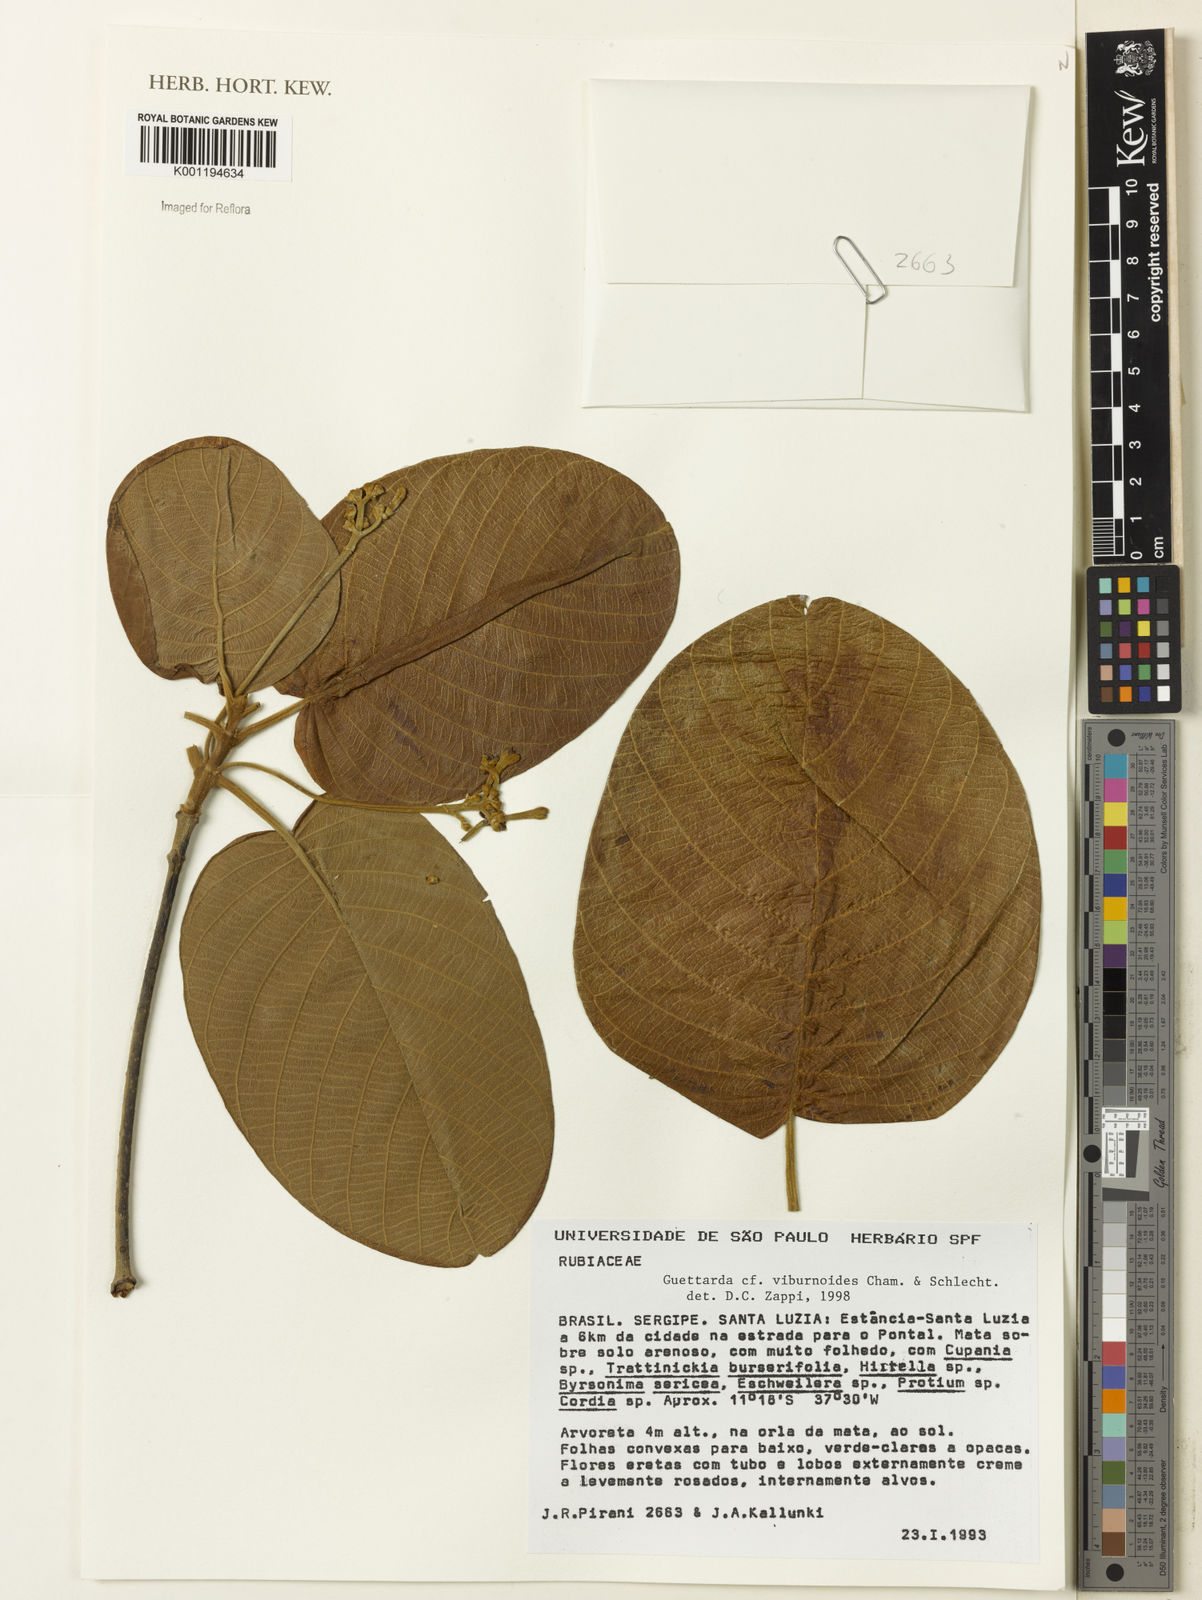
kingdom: Plantae
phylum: Tracheophyta
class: Magnoliopsida
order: Gentianales
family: Rubiaceae
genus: Guettarda
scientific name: Guettarda viburnoides
